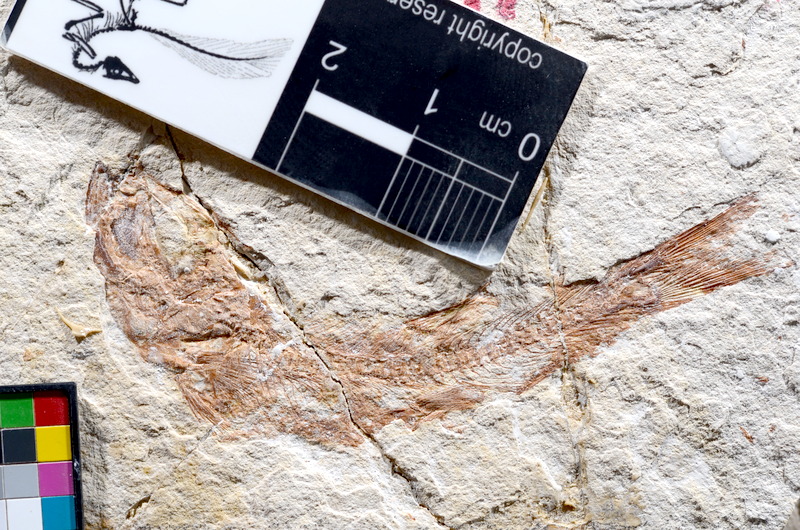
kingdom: Animalia
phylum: Chordata
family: Ascalaboidae
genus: Tharsis
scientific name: Tharsis dubius
